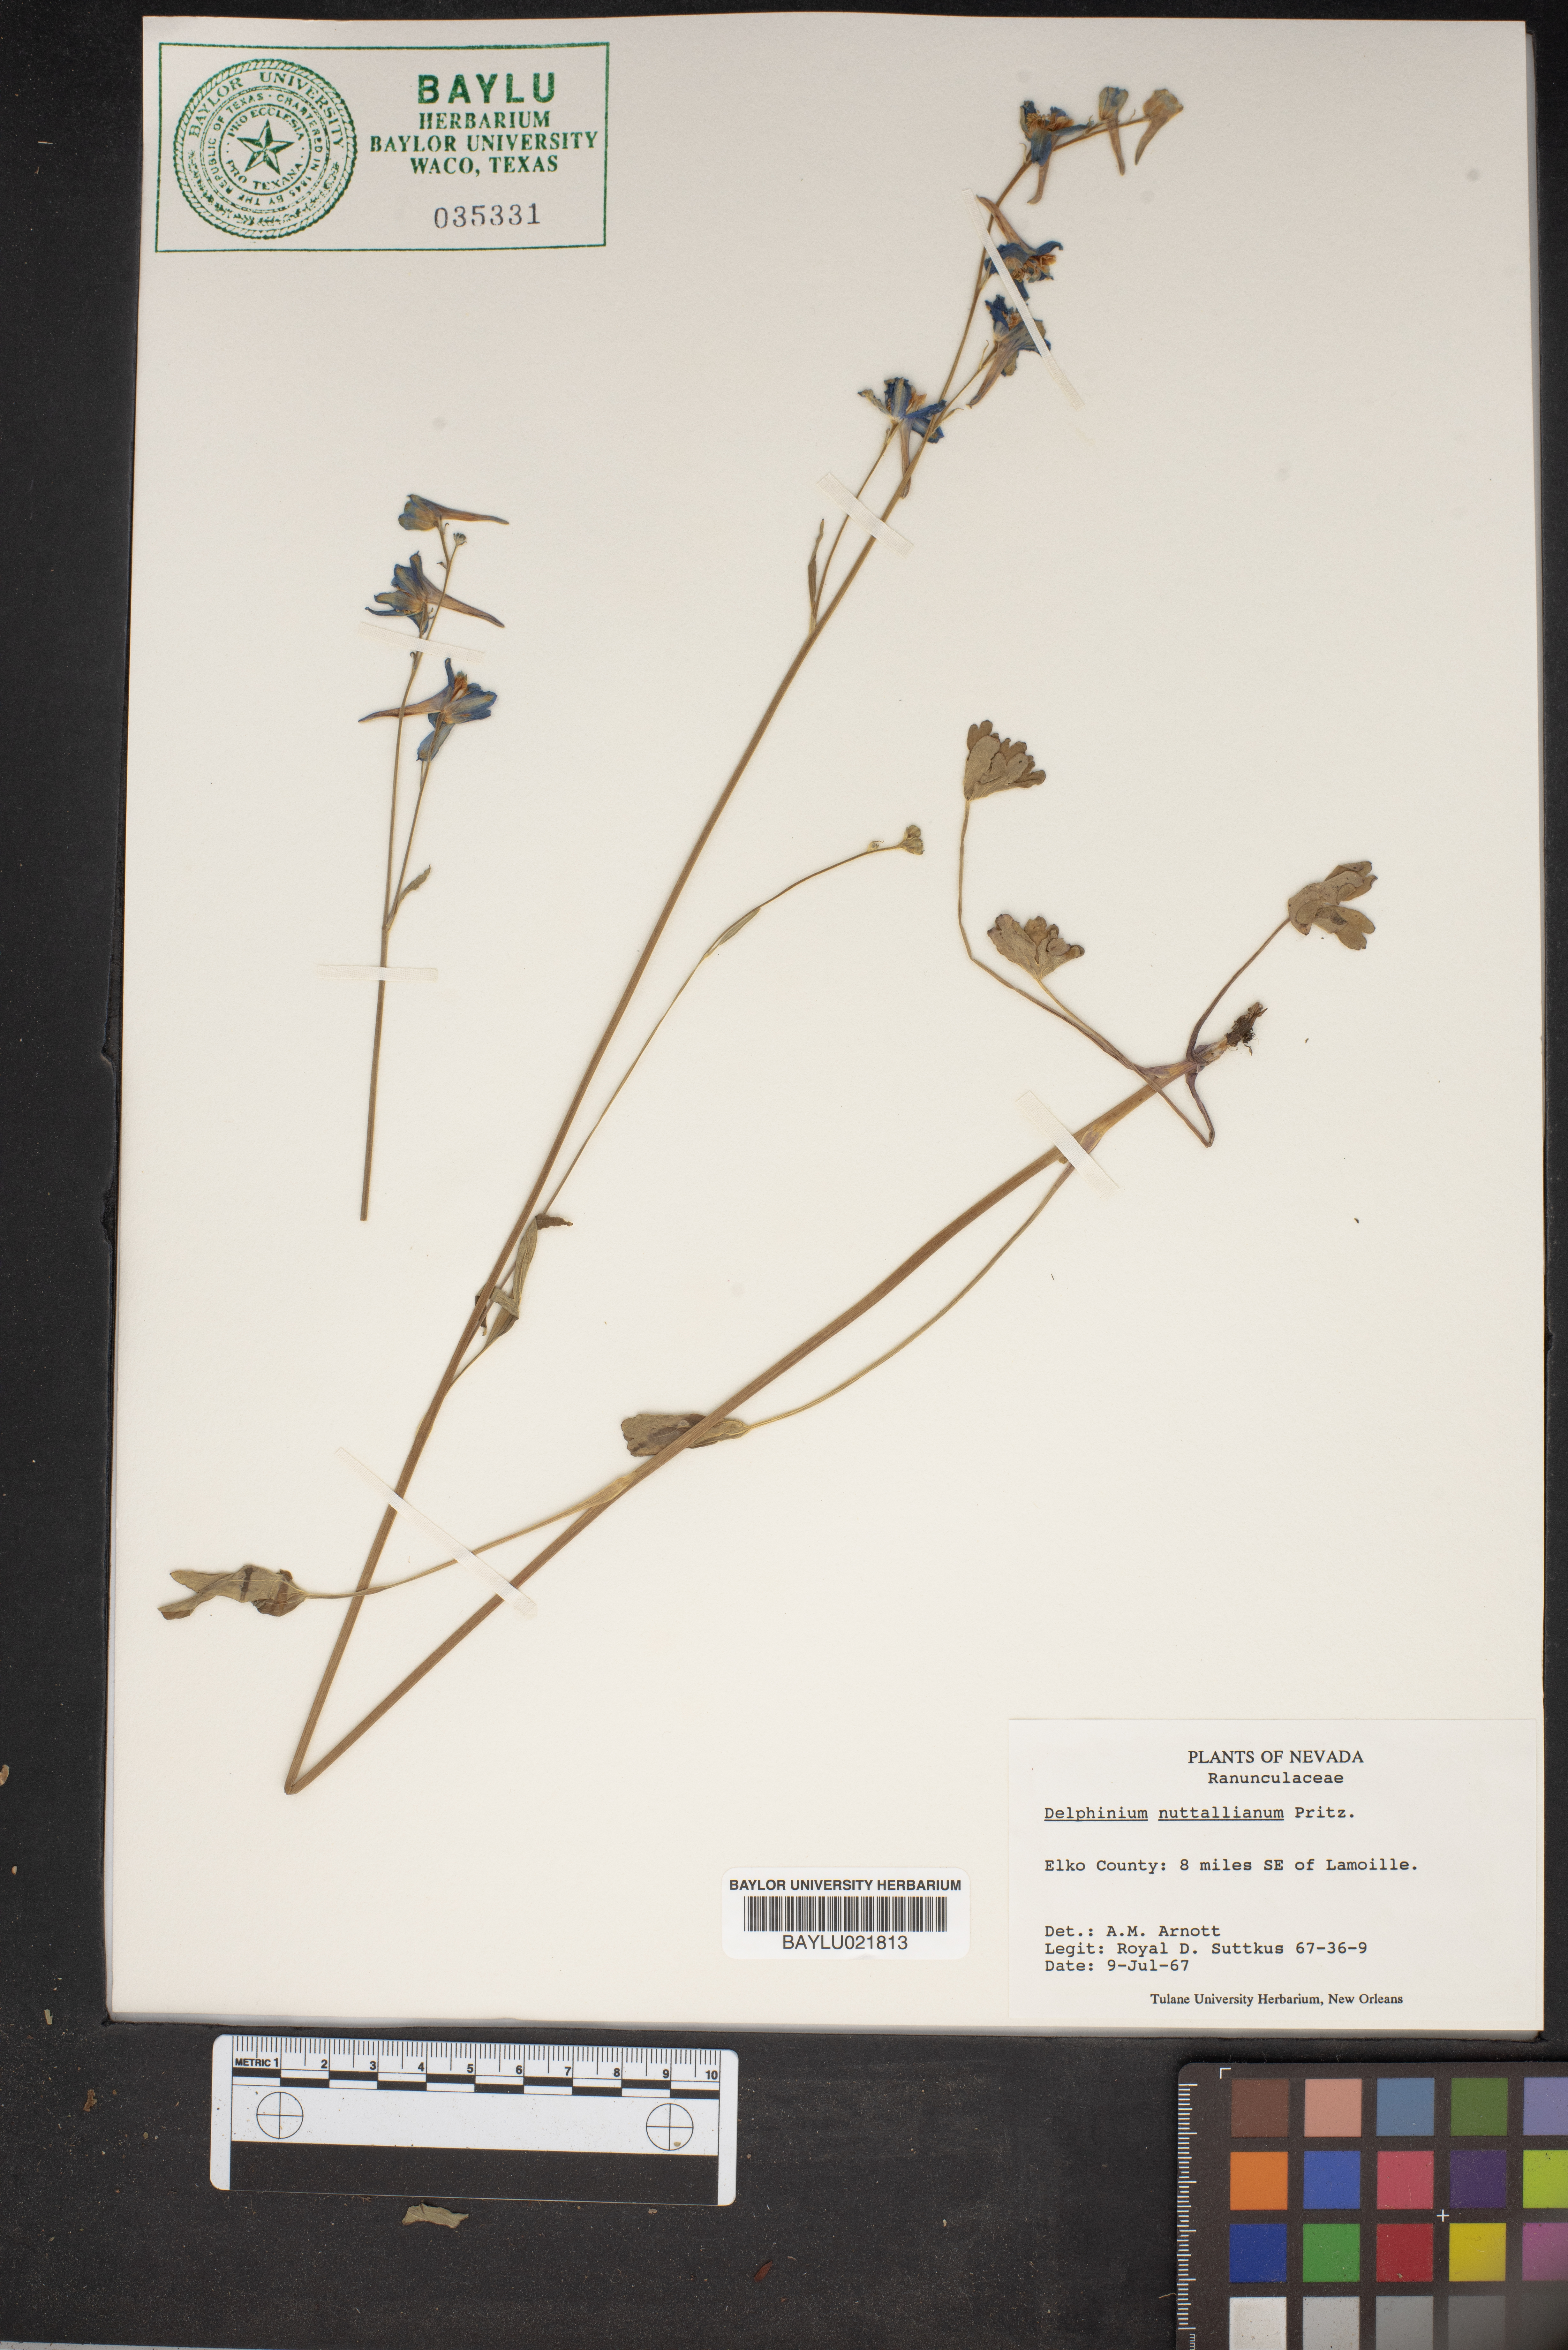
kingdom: Plantae
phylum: Tracheophyta
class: Magnoliopsida
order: Ranunculales
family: Ranunculaceae
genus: Delphinium
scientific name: Delphinium nuttallianum
